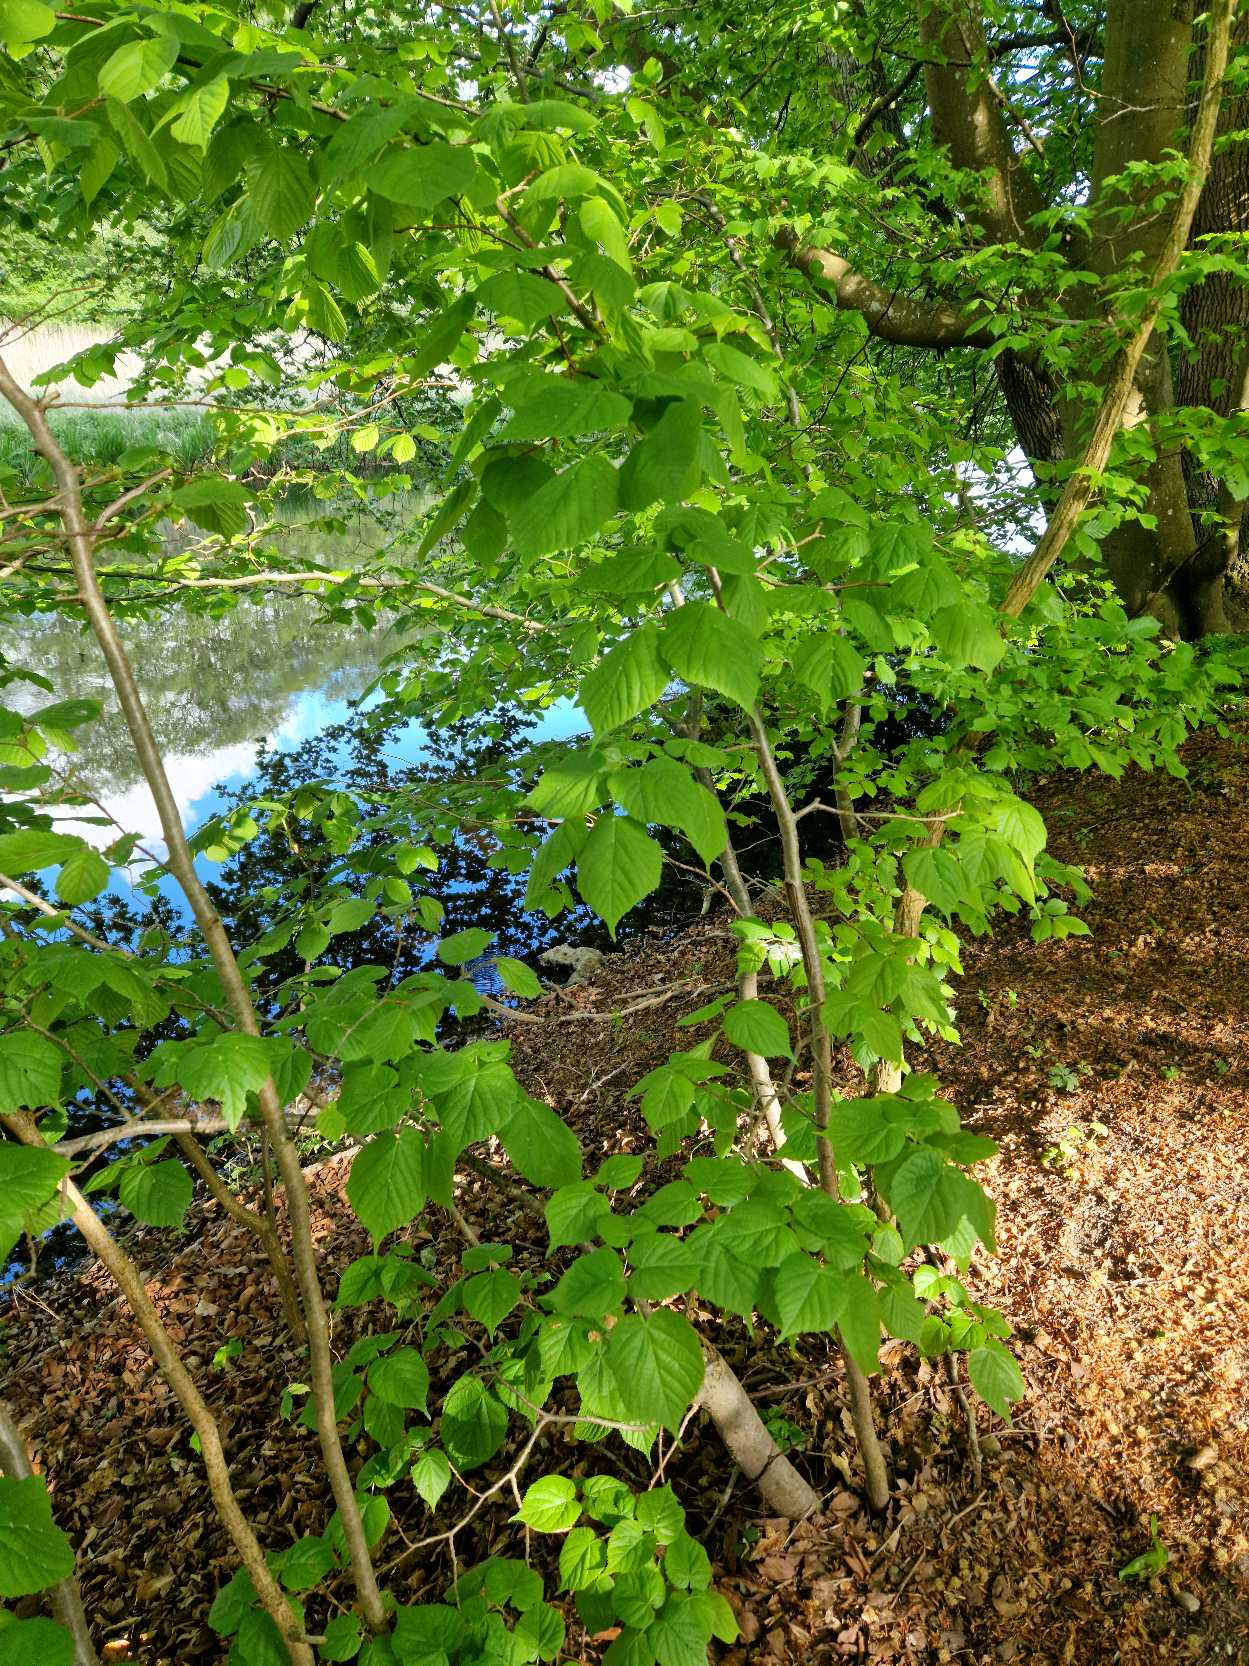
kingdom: Plantae
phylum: Tracheophyta
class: Magnoliopsida
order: Malvales
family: Malvaceae
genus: Tilia
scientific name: Tilia platyphyllos
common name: Storbladet lind
